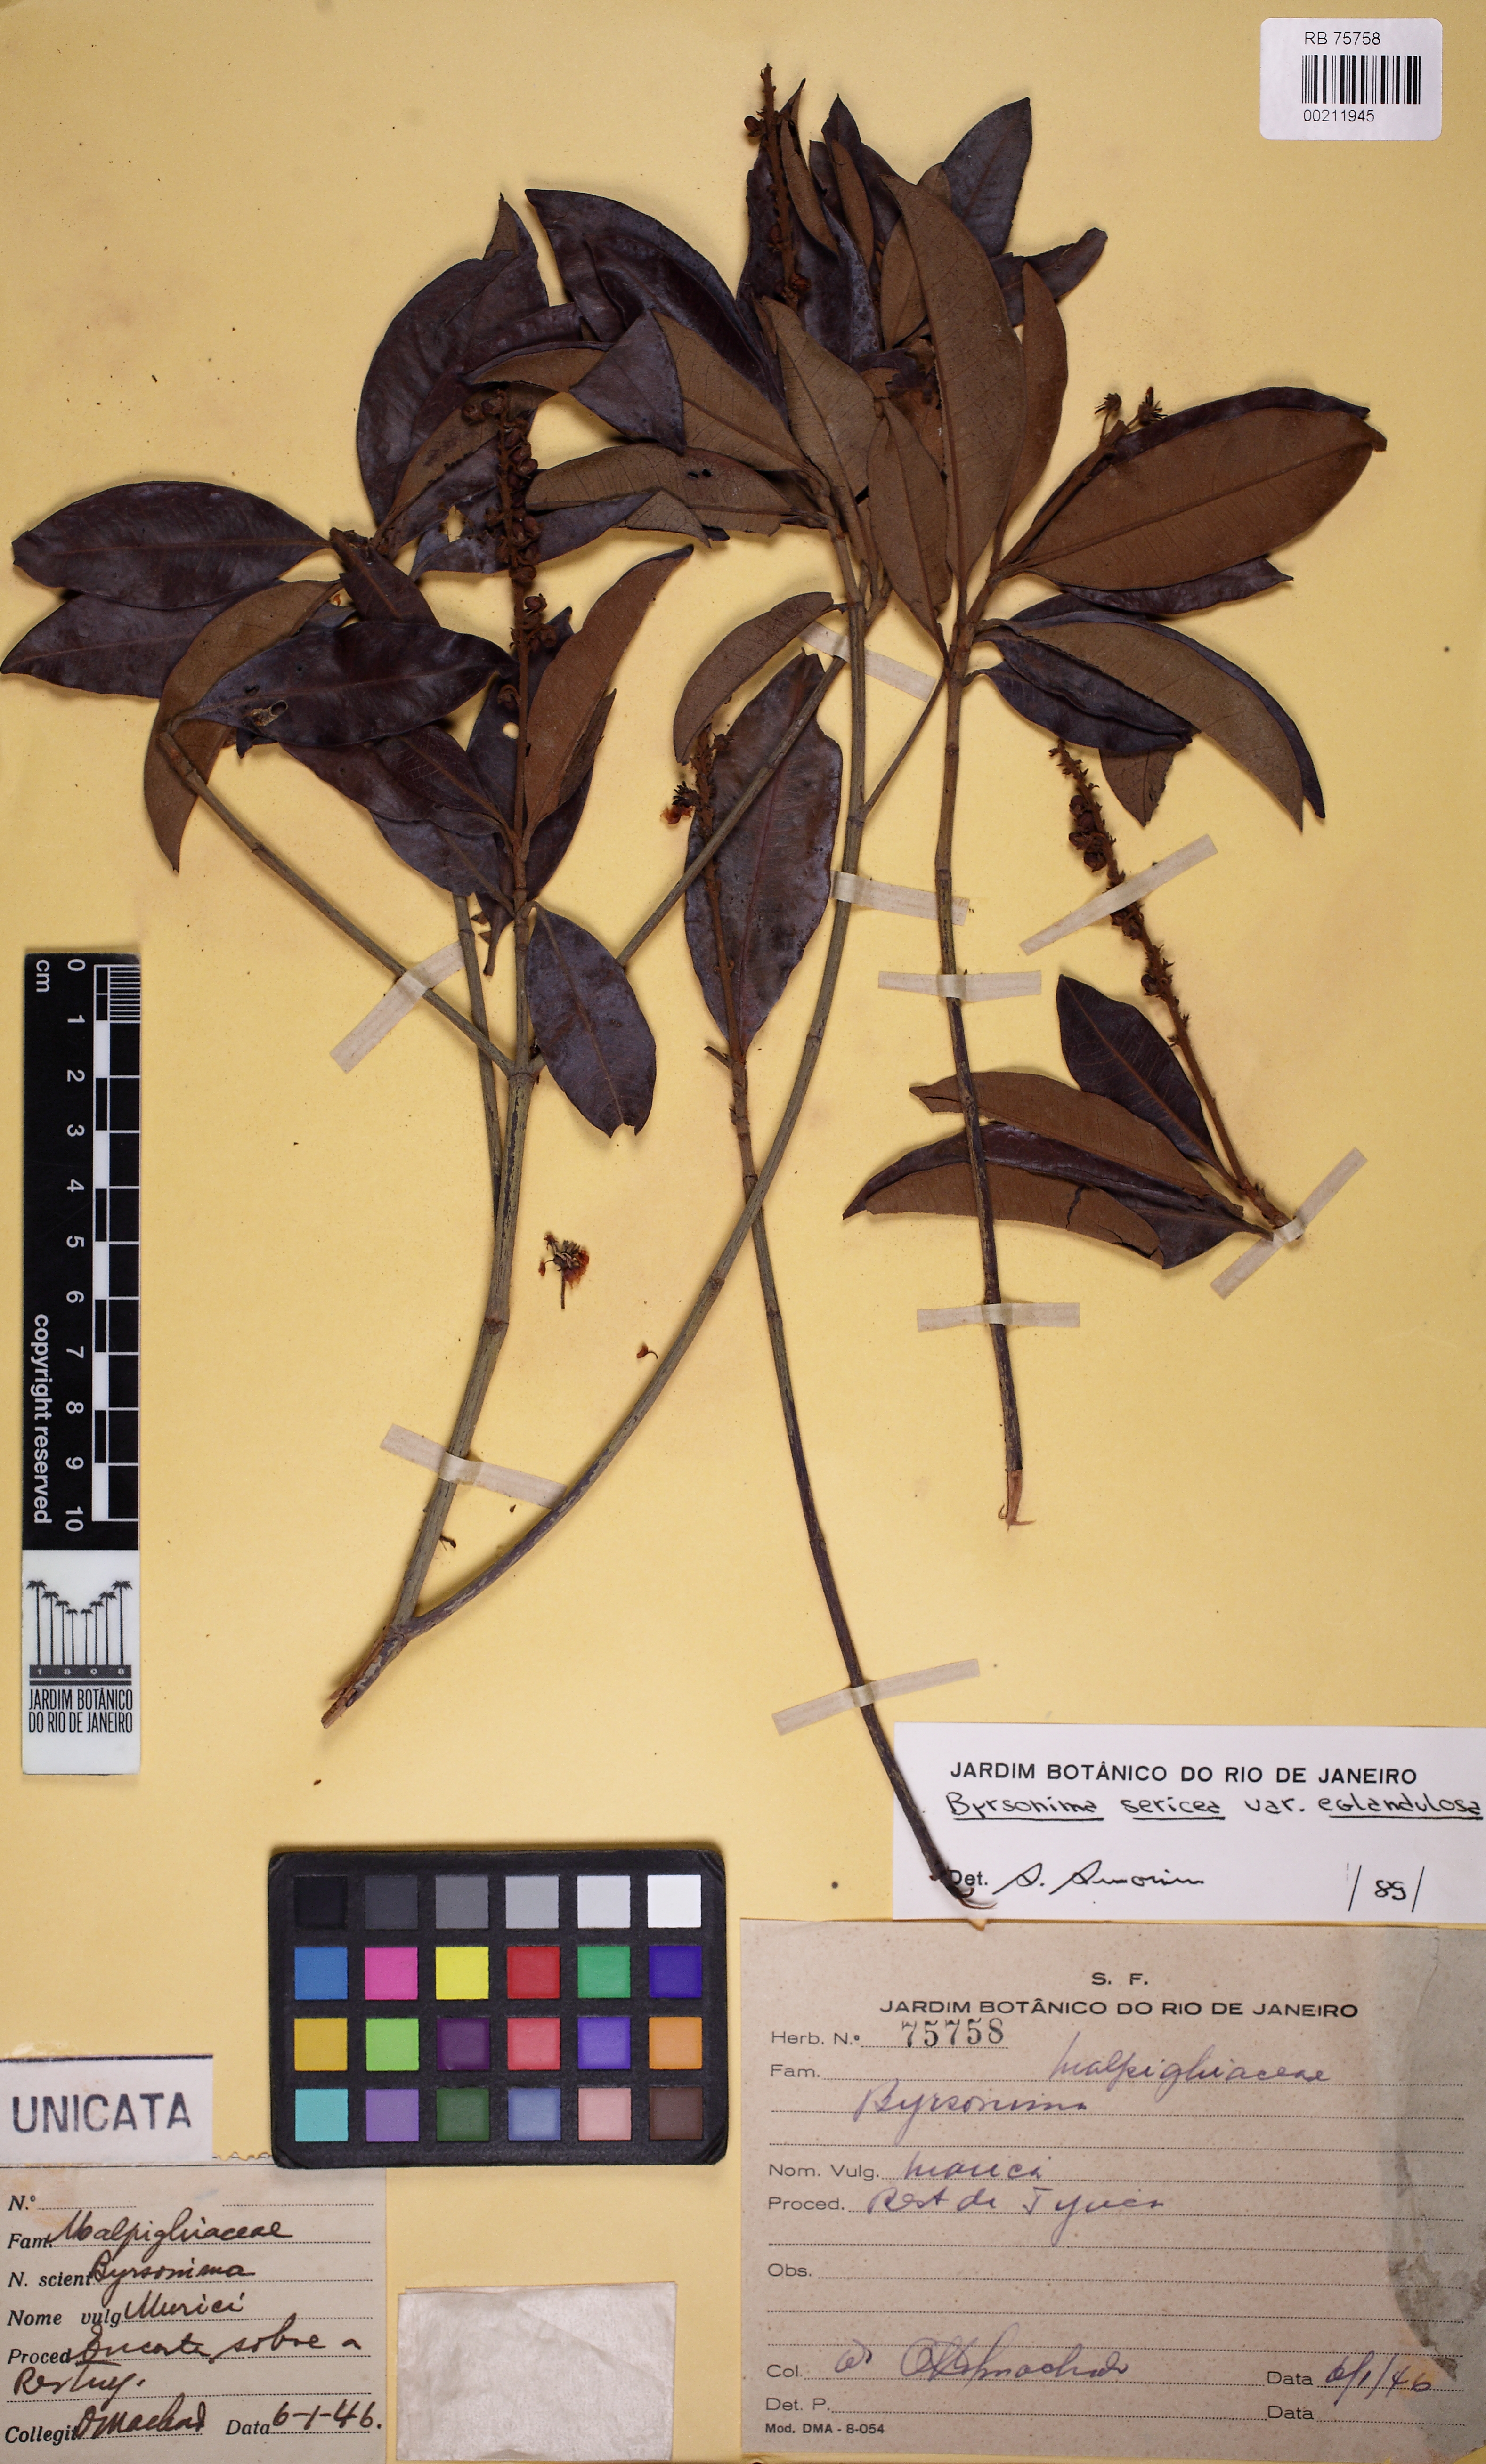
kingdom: Plantae
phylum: Tracheophyta
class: Magnoliopsida
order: Malpighiales
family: Malpighiaceae
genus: Byrsonima
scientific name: Byrsonima sericea
